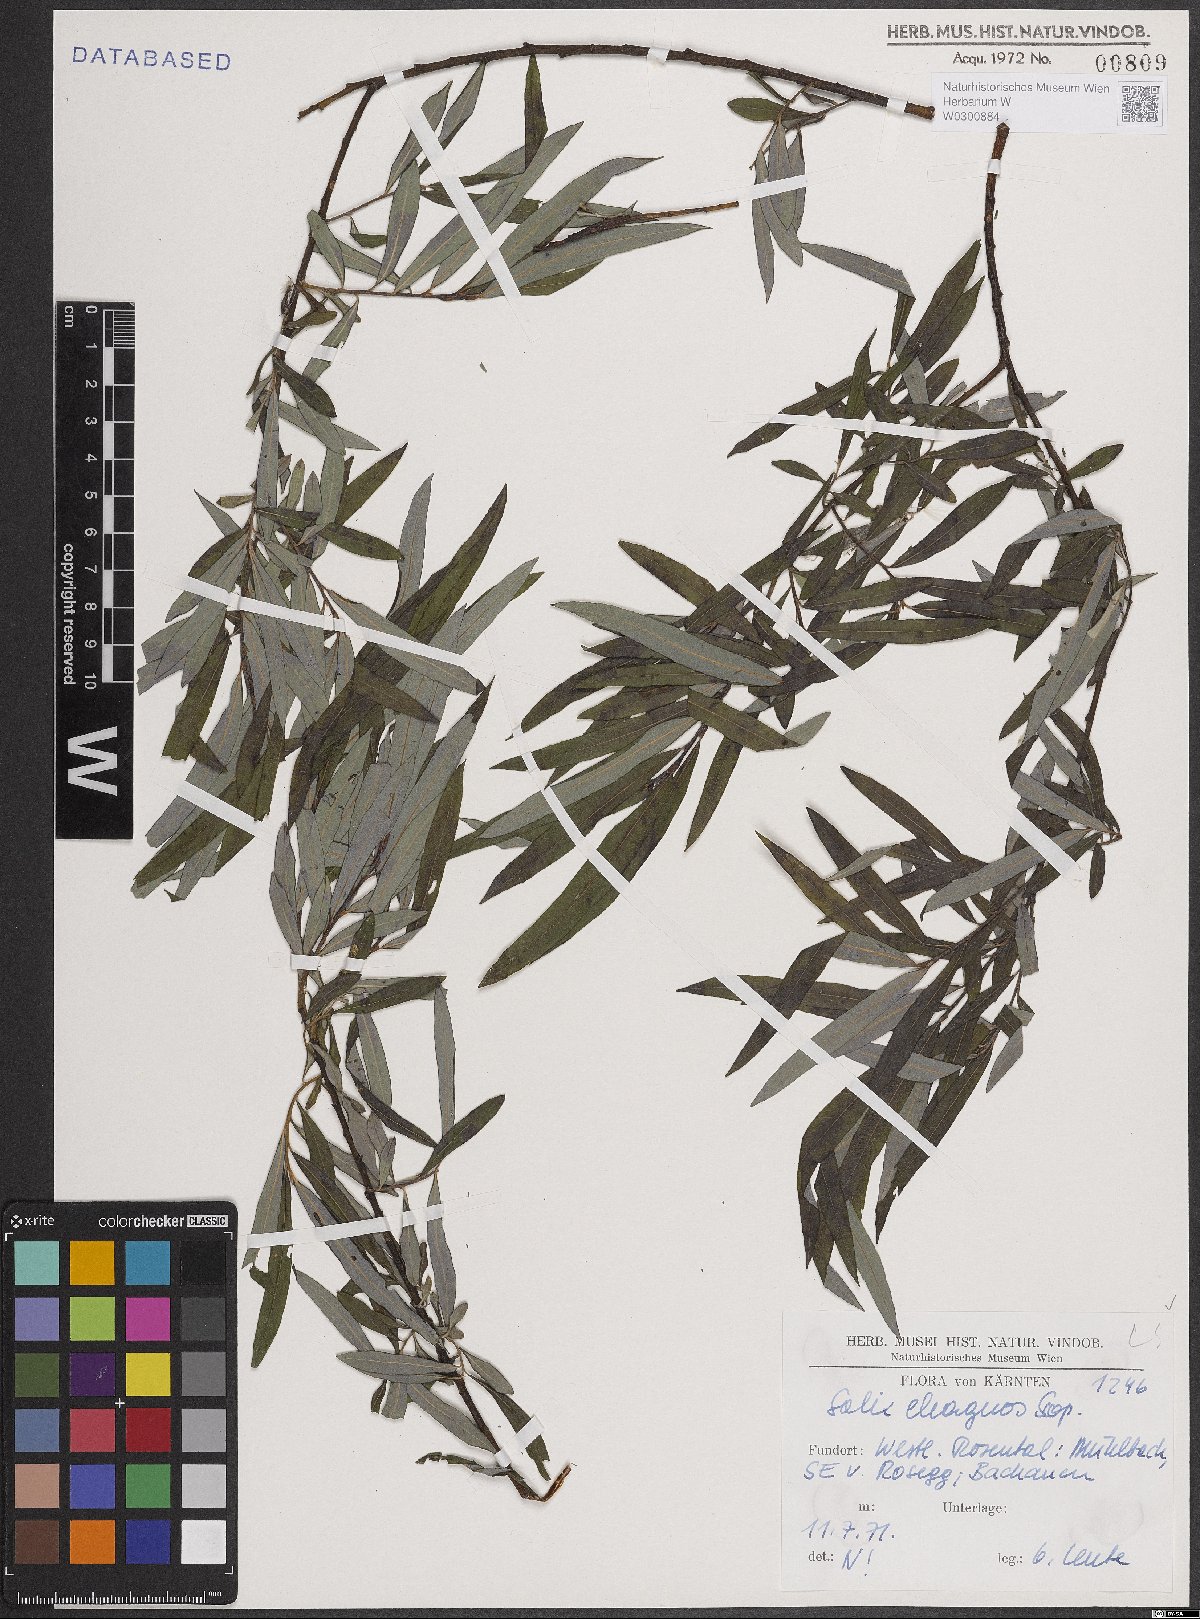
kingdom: Plantae
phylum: Tracheophyta
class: Magnoliopsida
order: Malpighiales
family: Salicaceae
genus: Salix
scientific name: Salix eleagnos
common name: Elaeagnus willow
